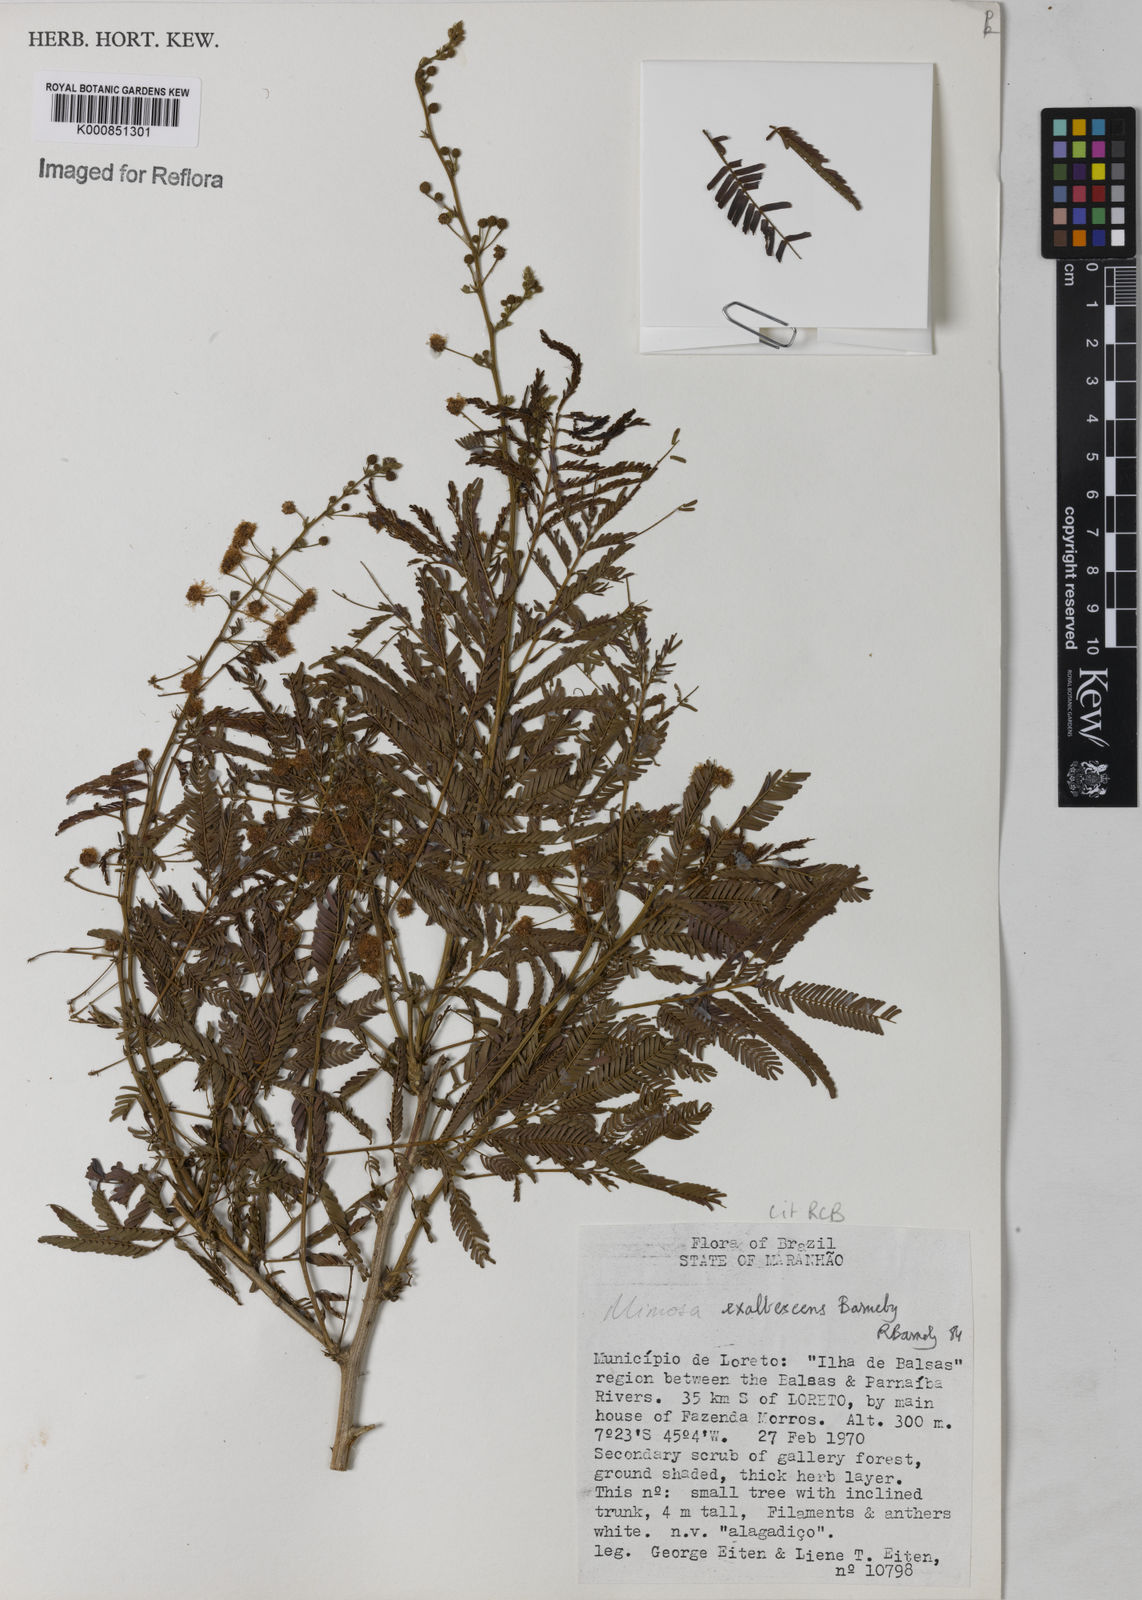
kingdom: Plantae
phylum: Tracheophyta
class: Magnoliopsida
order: Fabales
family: Fabaceae
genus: Mimosa
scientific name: Mimosa exalbescens
